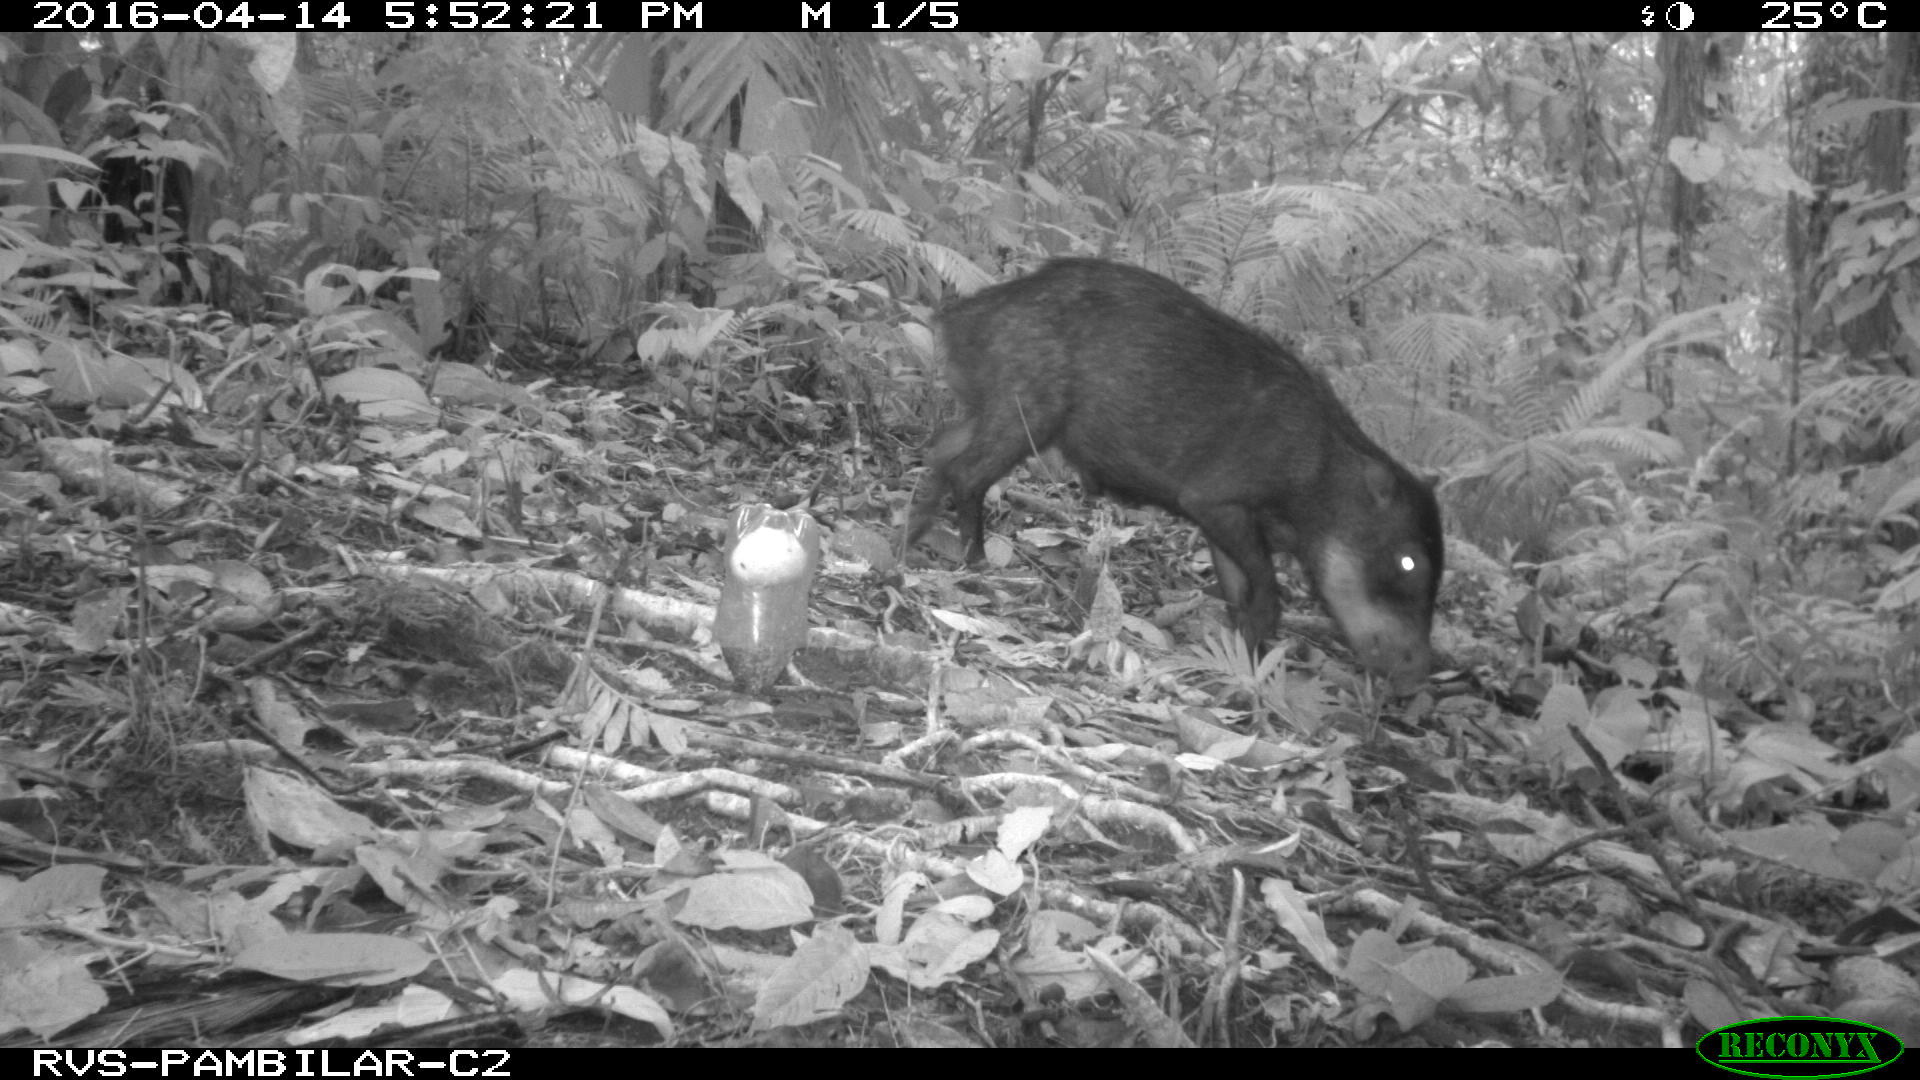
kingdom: Animalia
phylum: Chordata
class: Mammalia
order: Artiodactyla
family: Tayassuidae
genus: Tayassu
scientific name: Tayassu pecari
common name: White-lipped peccary
